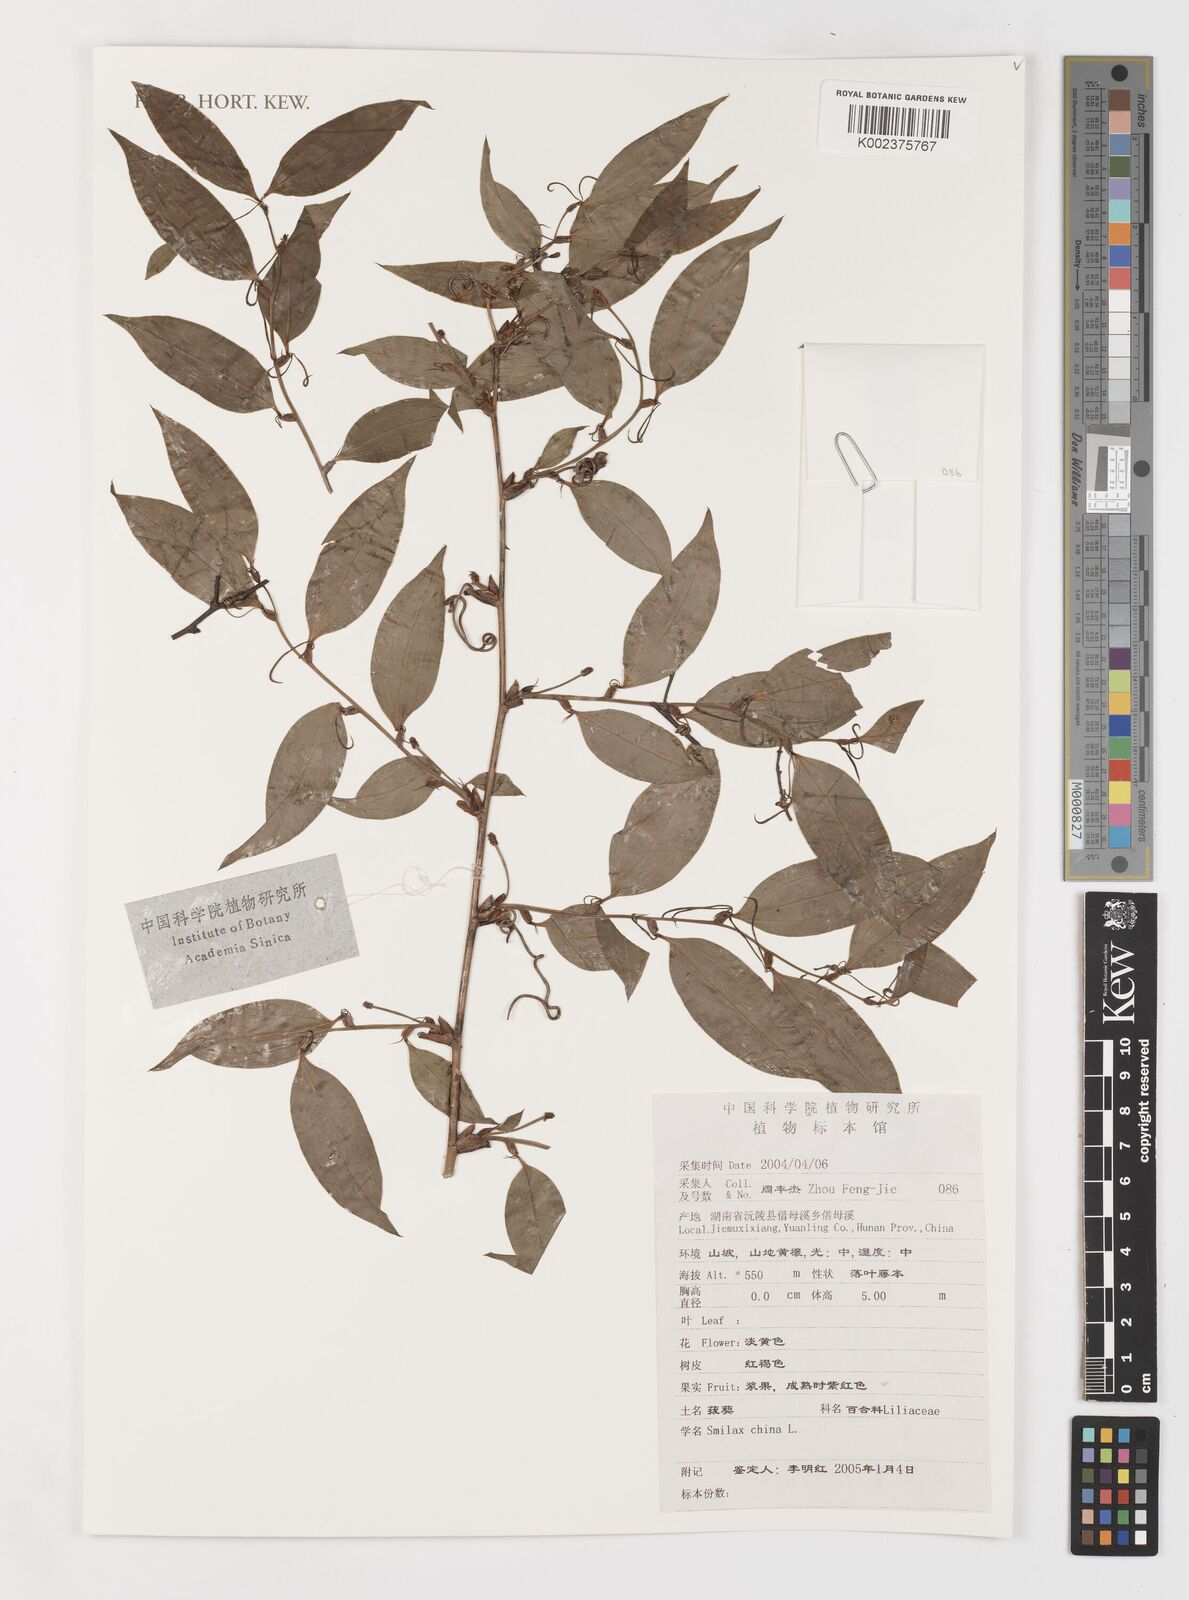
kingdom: Plantae
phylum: Tracheophyta
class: Liliopsida
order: Liliales
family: Smilacaceae
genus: Smilax
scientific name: Smilax china
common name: Chinaroot
